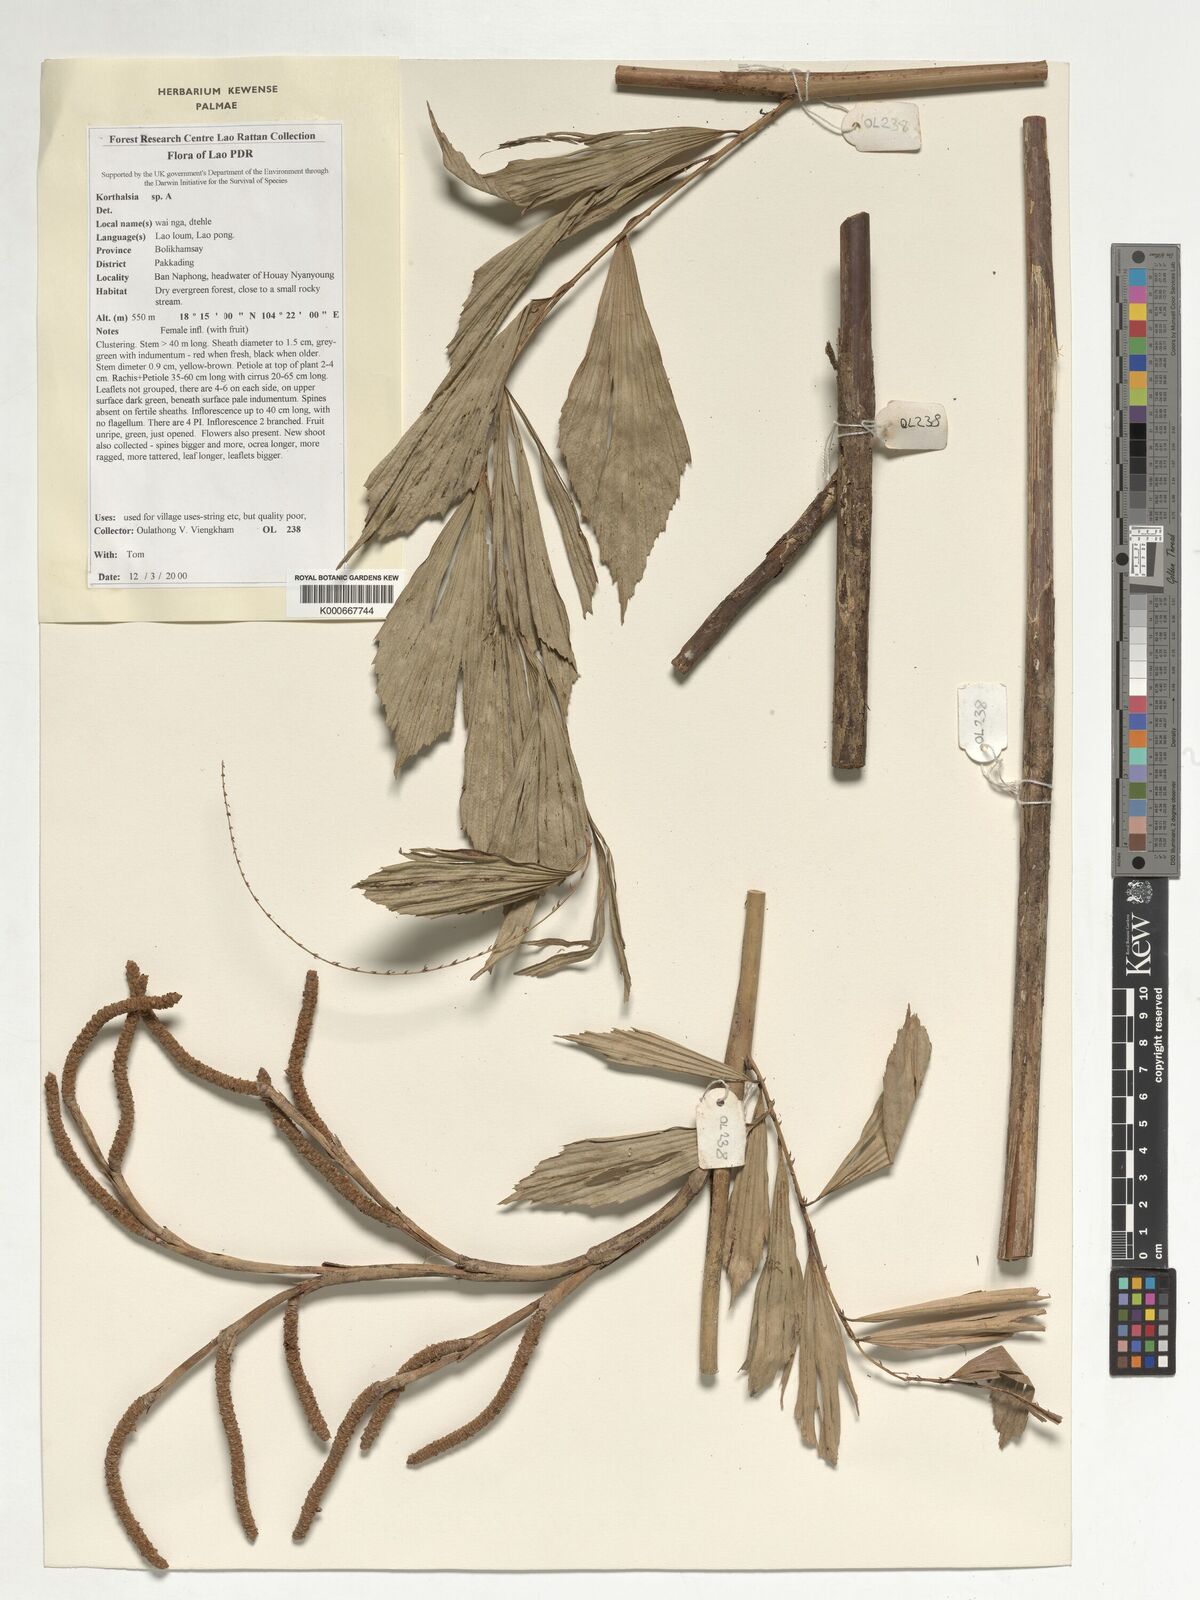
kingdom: Plantae
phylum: Tracheophyta
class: Liliopsida
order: Arecales
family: Arecaceae
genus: Korthalsia
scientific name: Korthalsia
